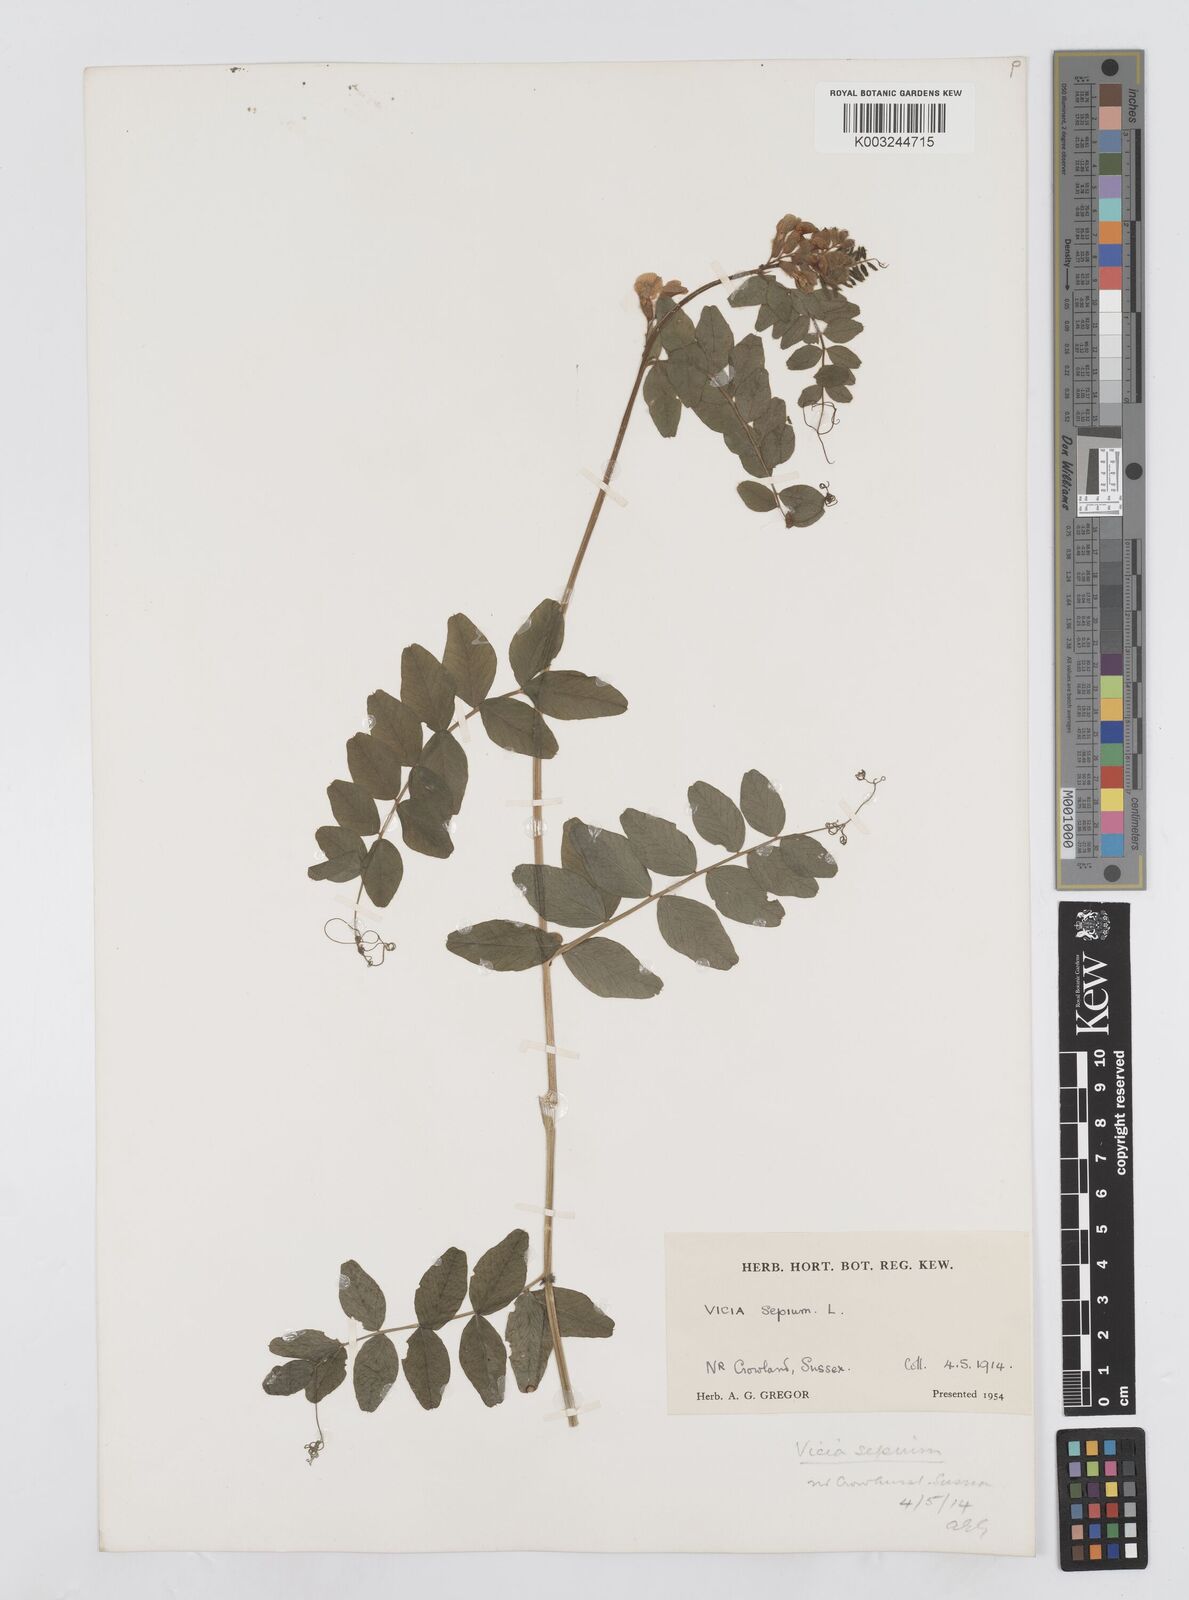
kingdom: Plantae
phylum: Tracheophyta
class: Magnoliopsida
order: Fabales
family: Fabaceae
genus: Vicia
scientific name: Vicia sepium
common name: Bush vetch
